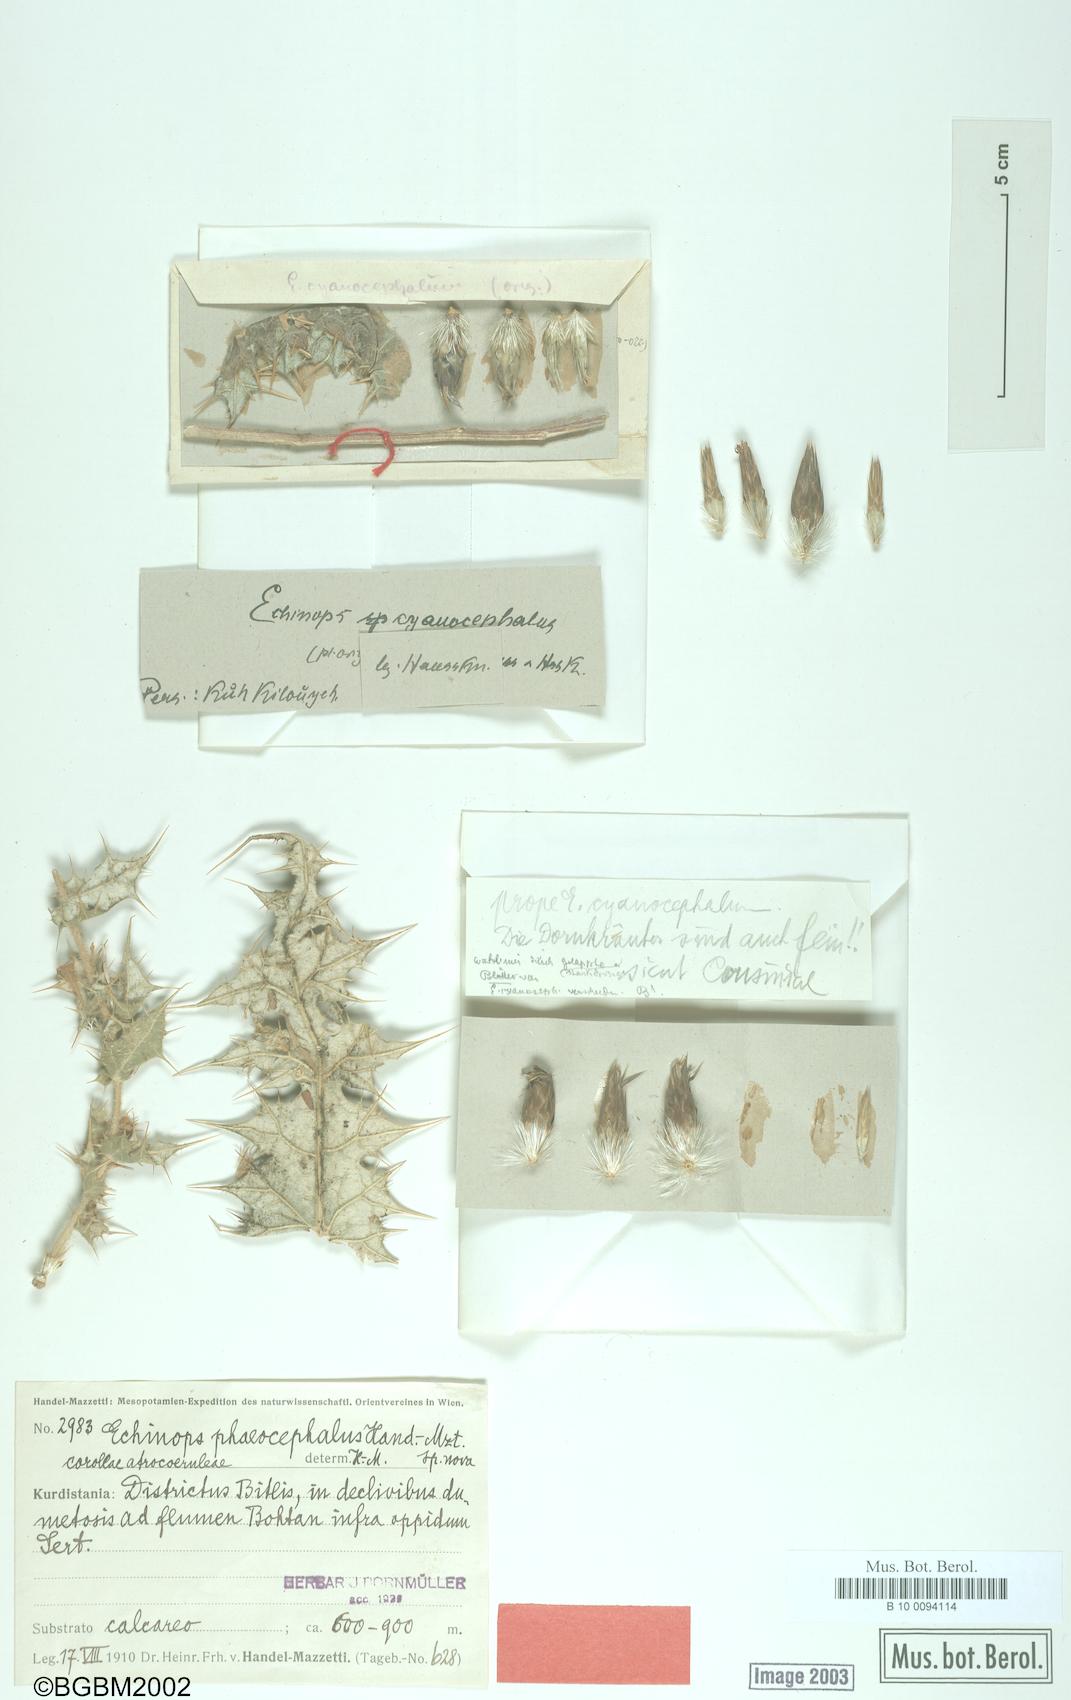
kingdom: Plantae
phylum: Tracheophyta
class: Magnoliopsida
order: Asterales
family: Asteraceae
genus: Echinops
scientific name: Echinops phaeocephalus
